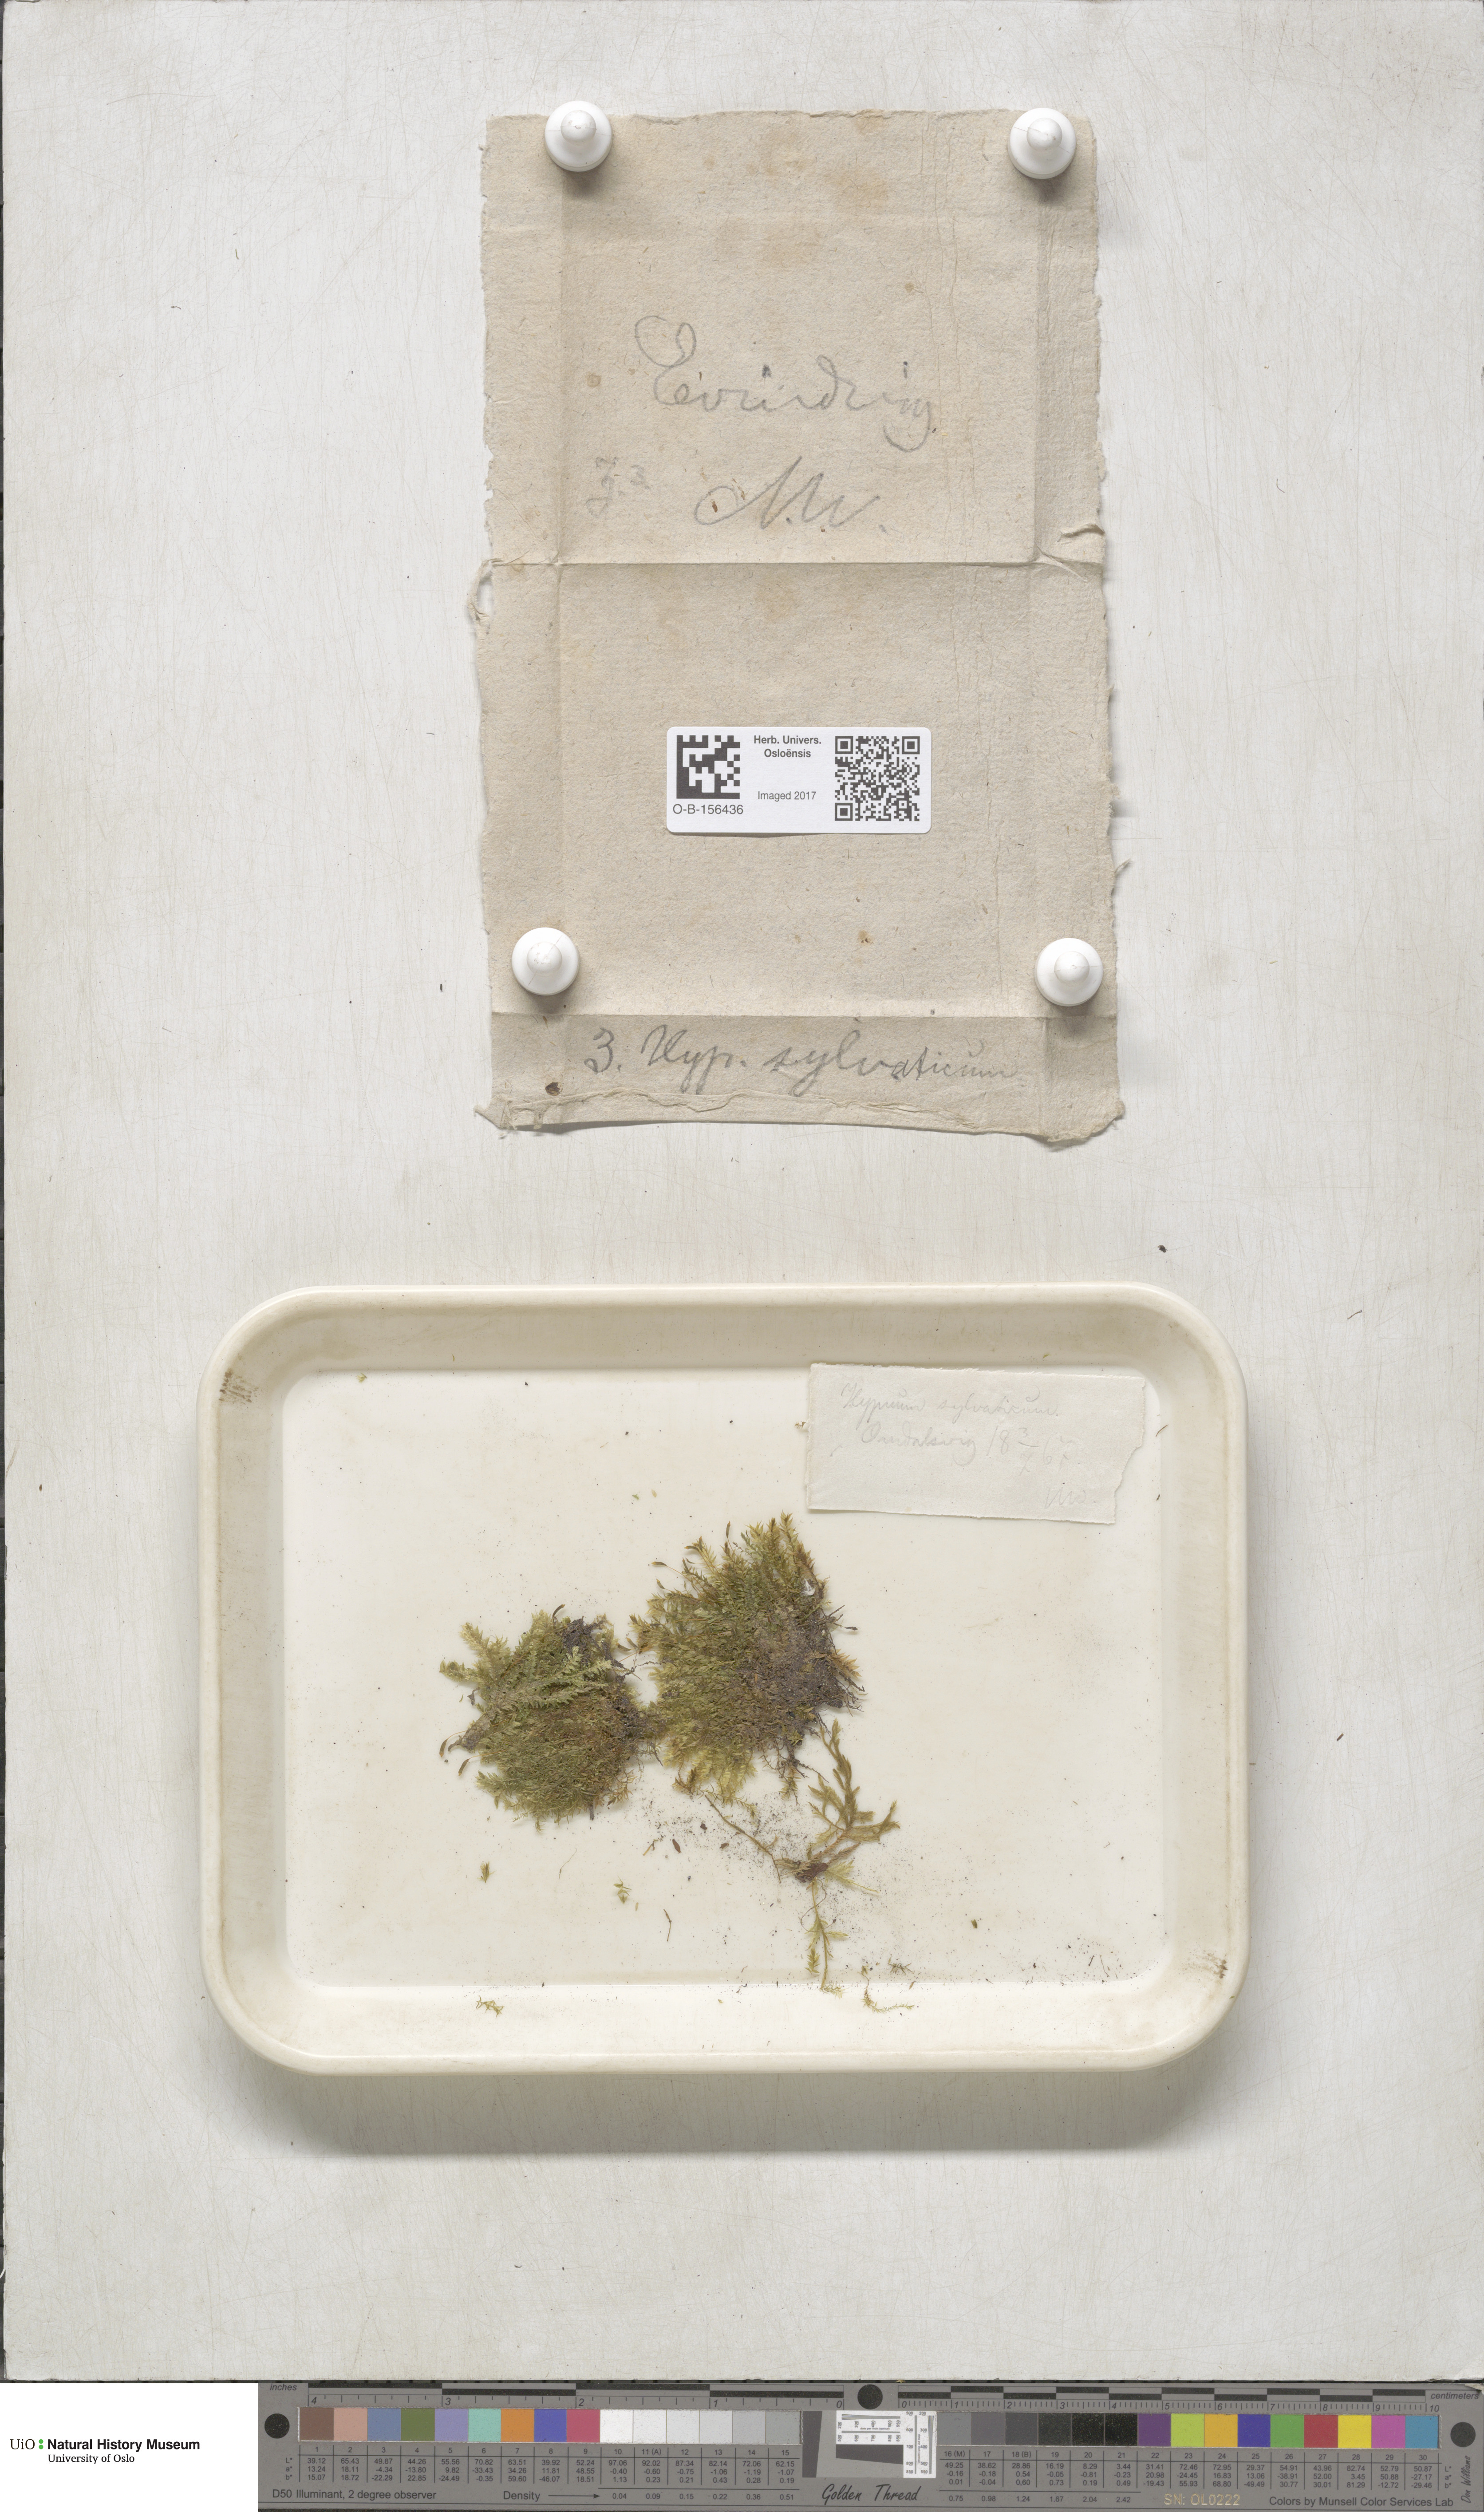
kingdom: Plantae
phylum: Bryophyta
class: Bryopsida
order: Hypnales
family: Plagiotheciaceae
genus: Plagiothecium
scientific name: Plagiothecium nemorale
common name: Woodsy silk-moss
